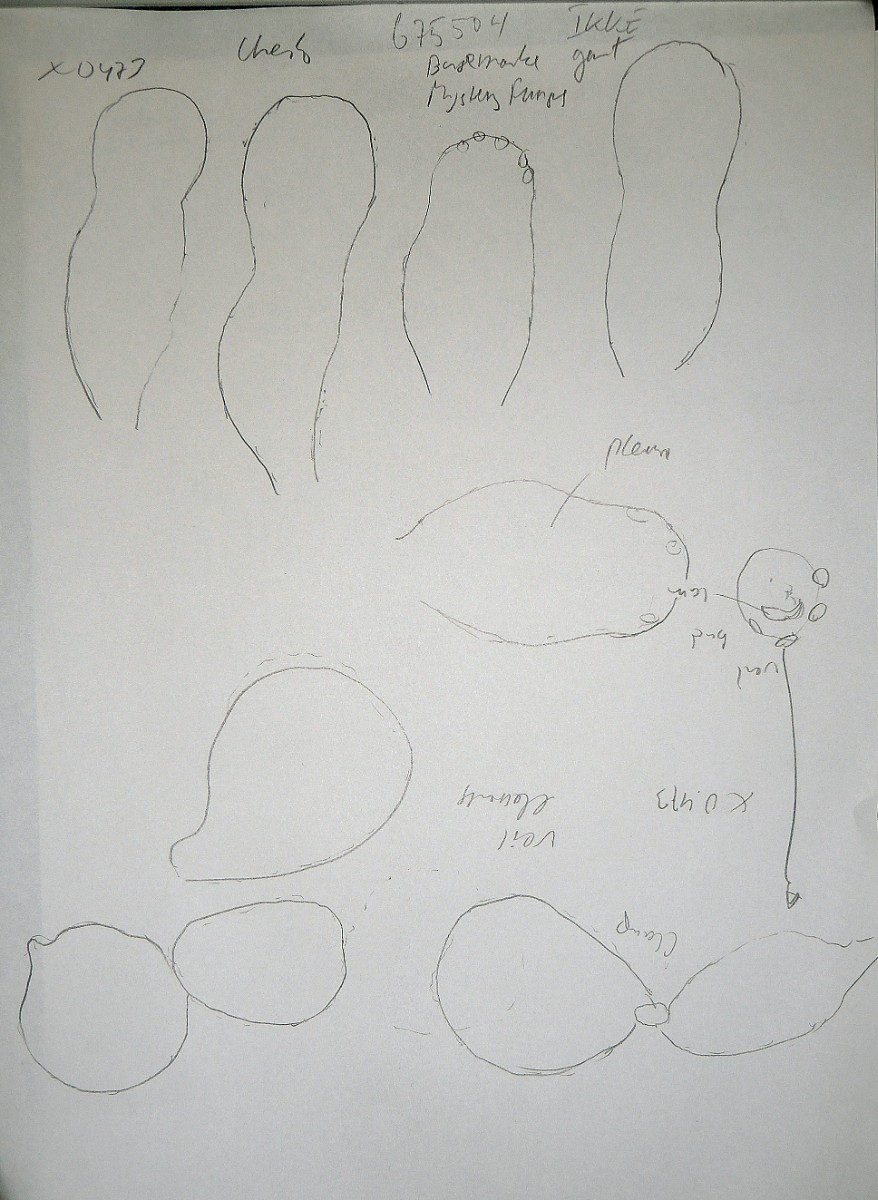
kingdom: Fungi
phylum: Basidiomycota
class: Agaricomycetes
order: Agaricales
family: Psathyrellaceae
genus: Psathyrella
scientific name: Psathyrella
